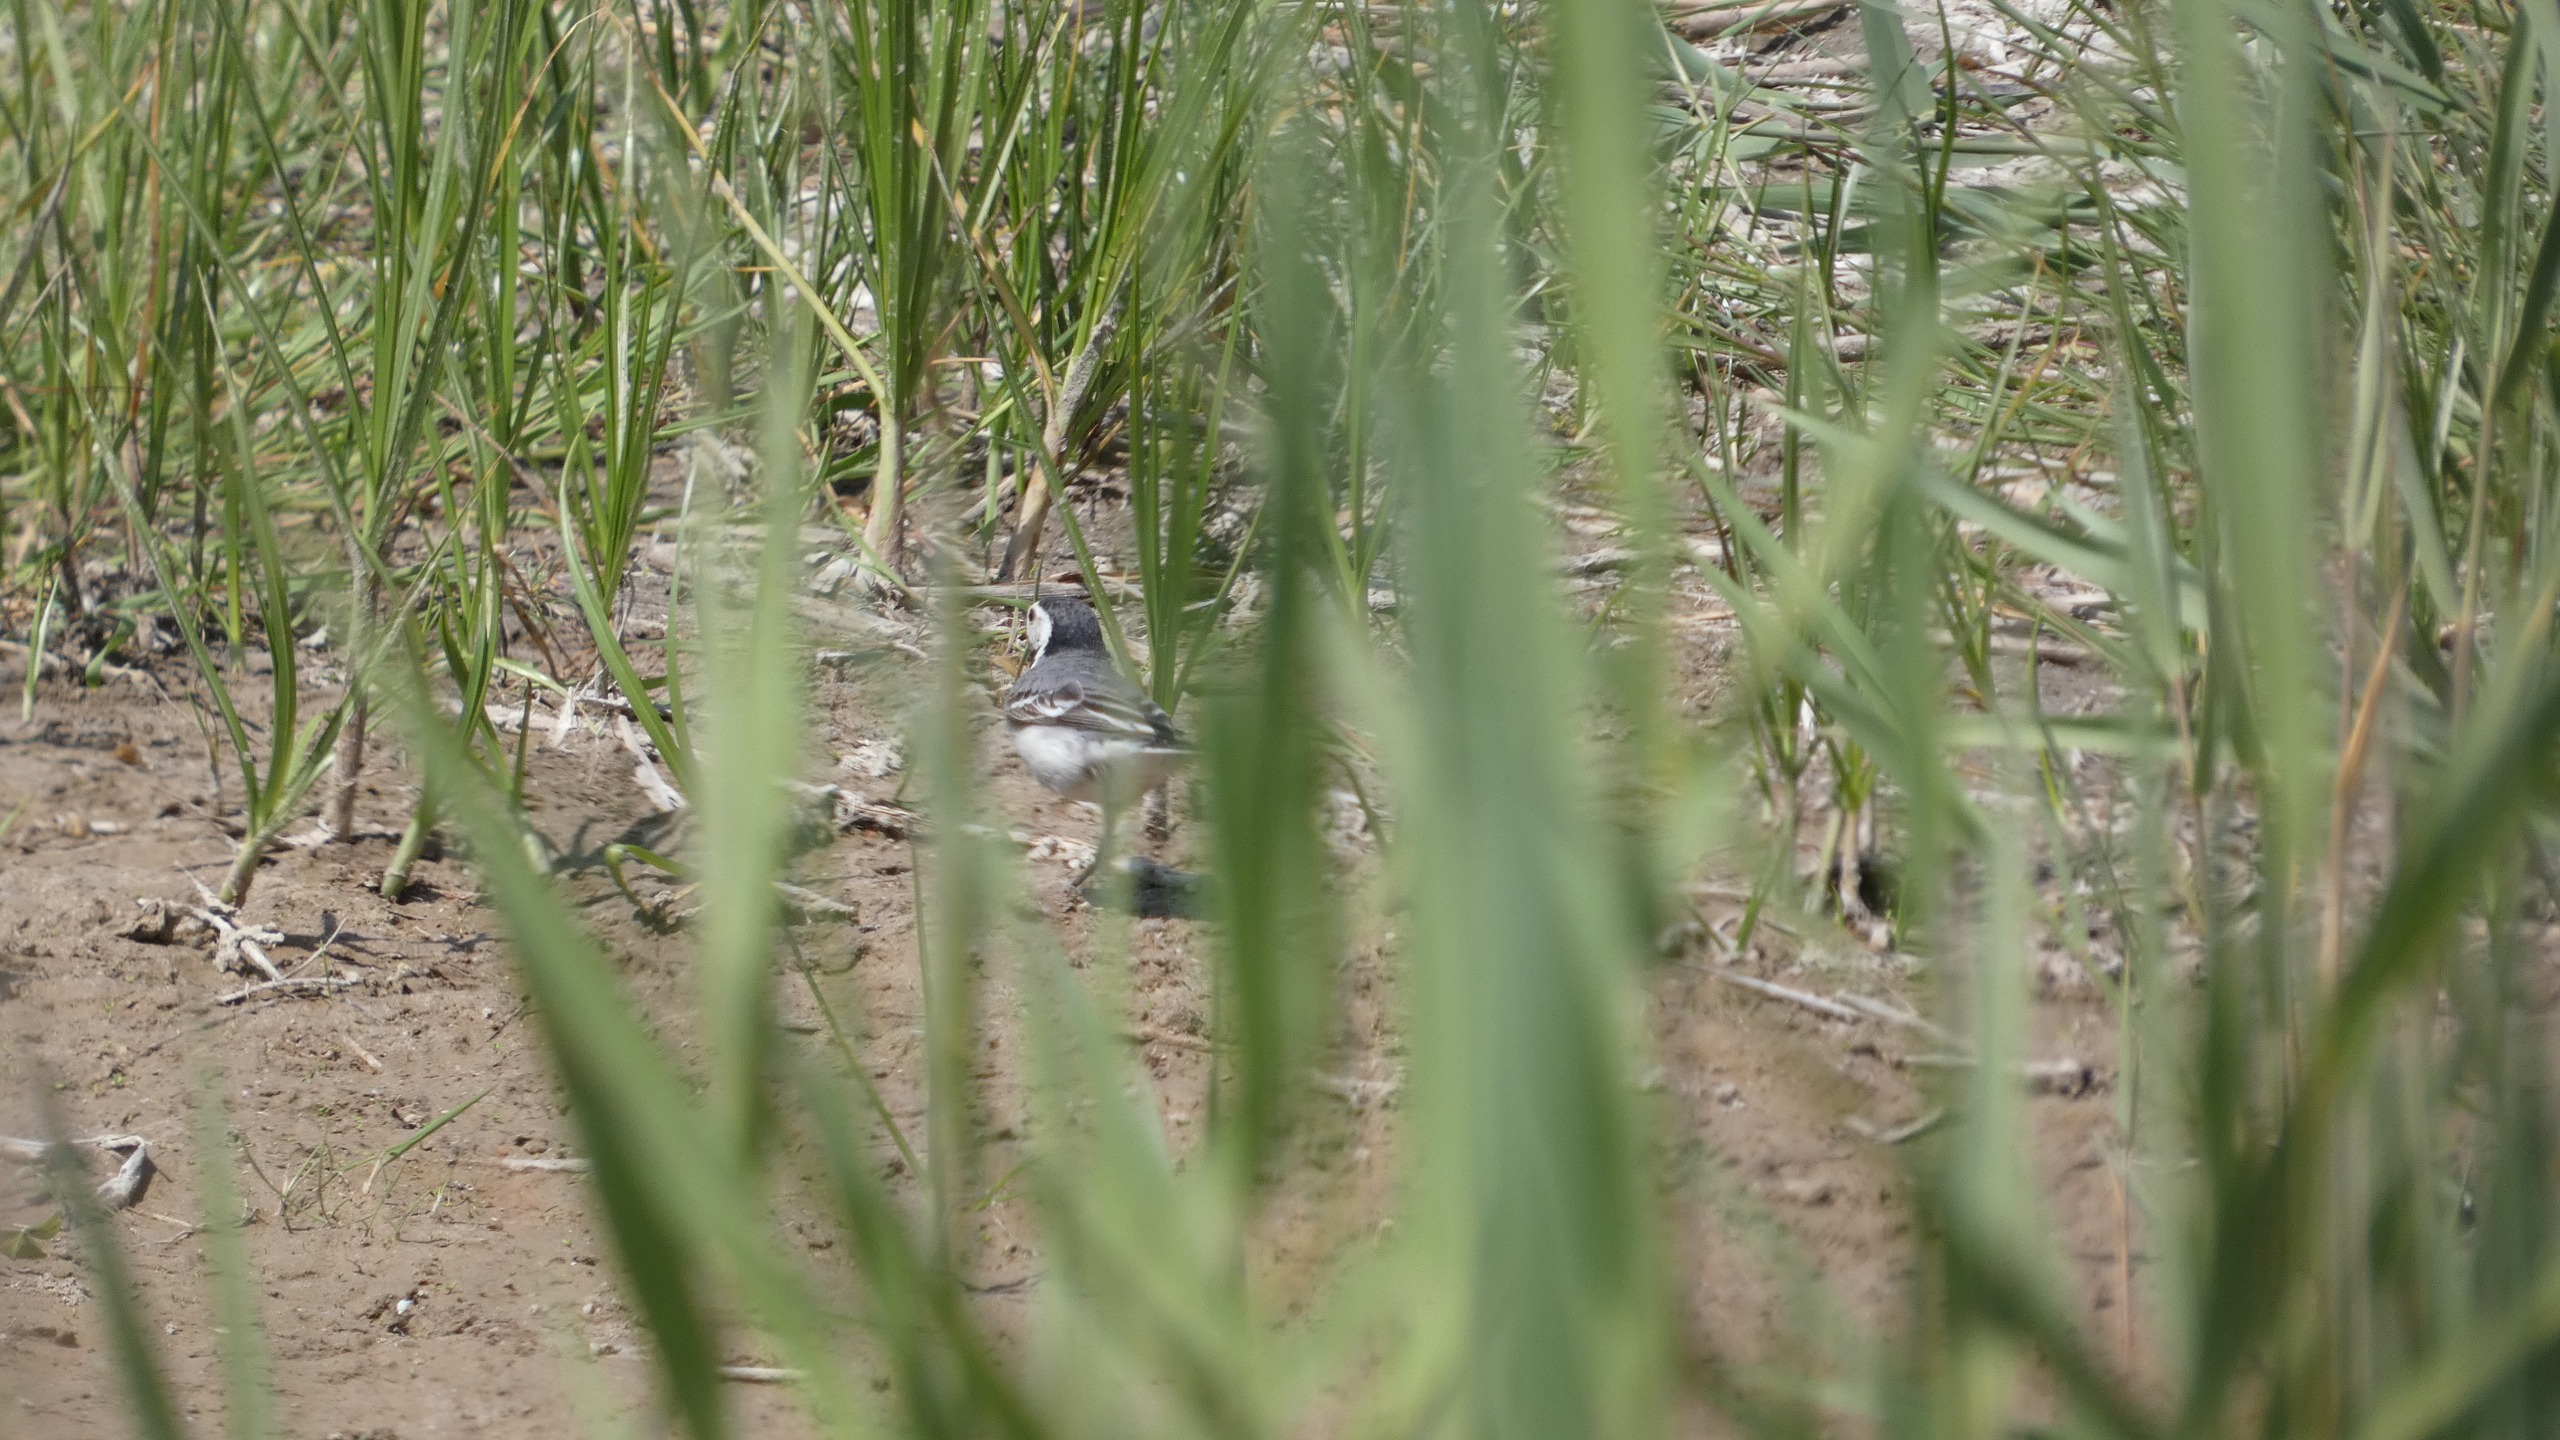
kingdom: Animalia
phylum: Chordata
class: Aves
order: Passeriformes
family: Motacillidae
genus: Motacilla
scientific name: Motacilla alba
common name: Hvid vipstjert
